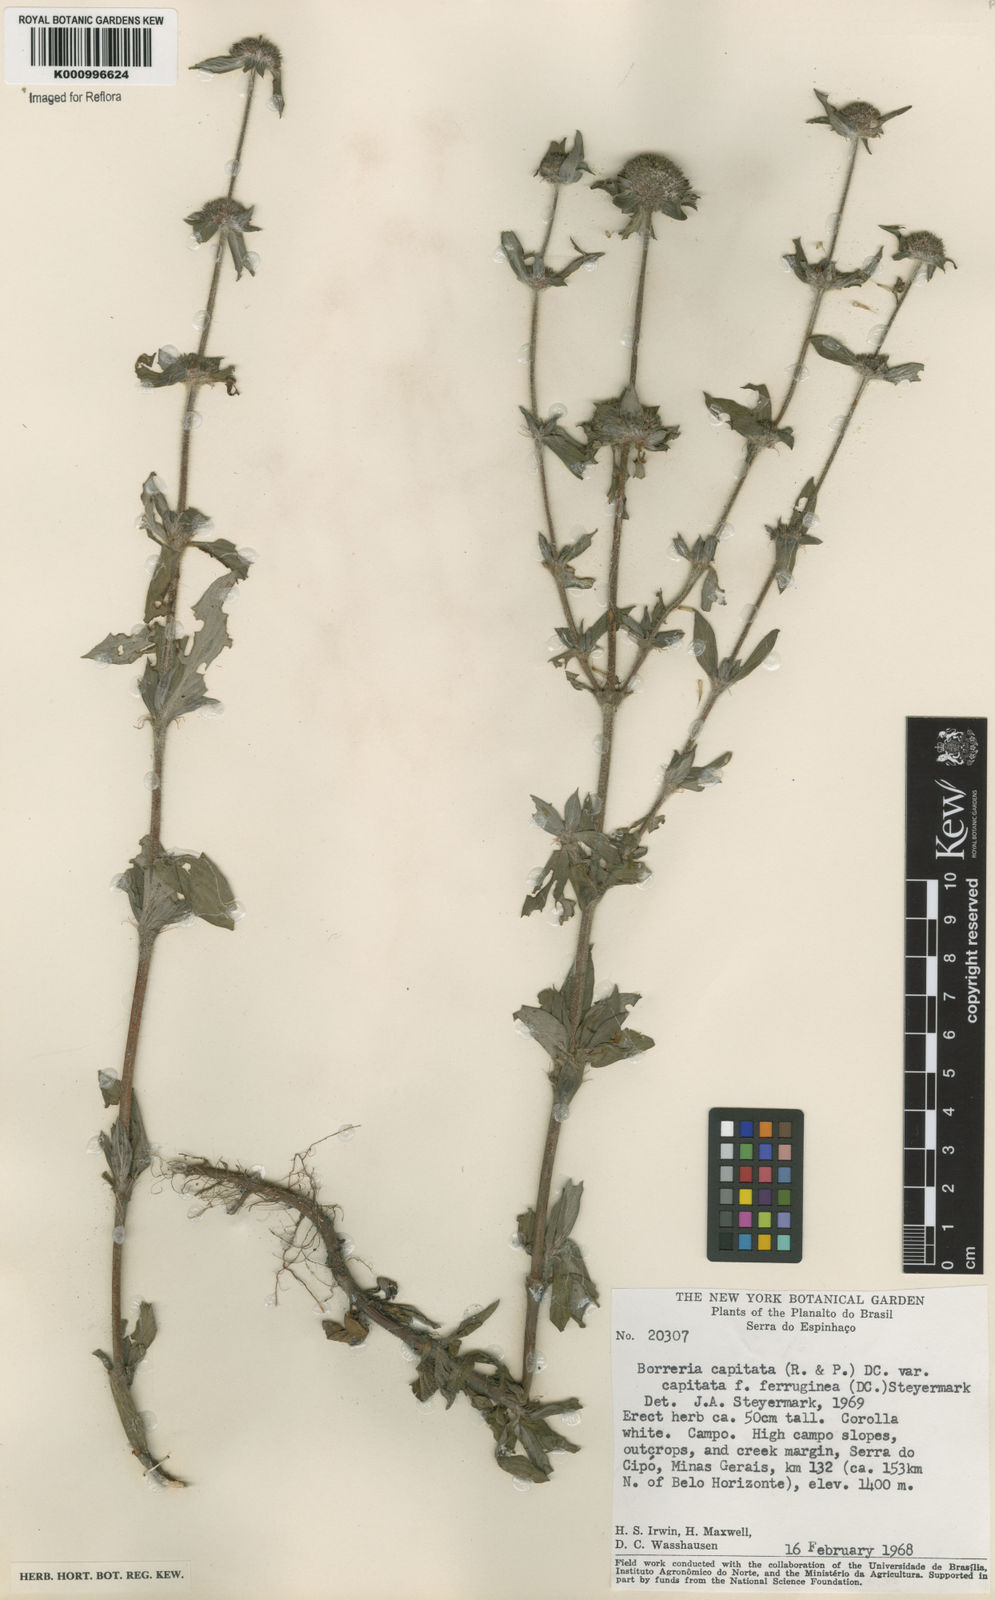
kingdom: Plantae
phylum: Tracheophyta
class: Magnoliopsida
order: Gentianales
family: Rubiaceae
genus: Spermacoce
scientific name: Spermacoce
